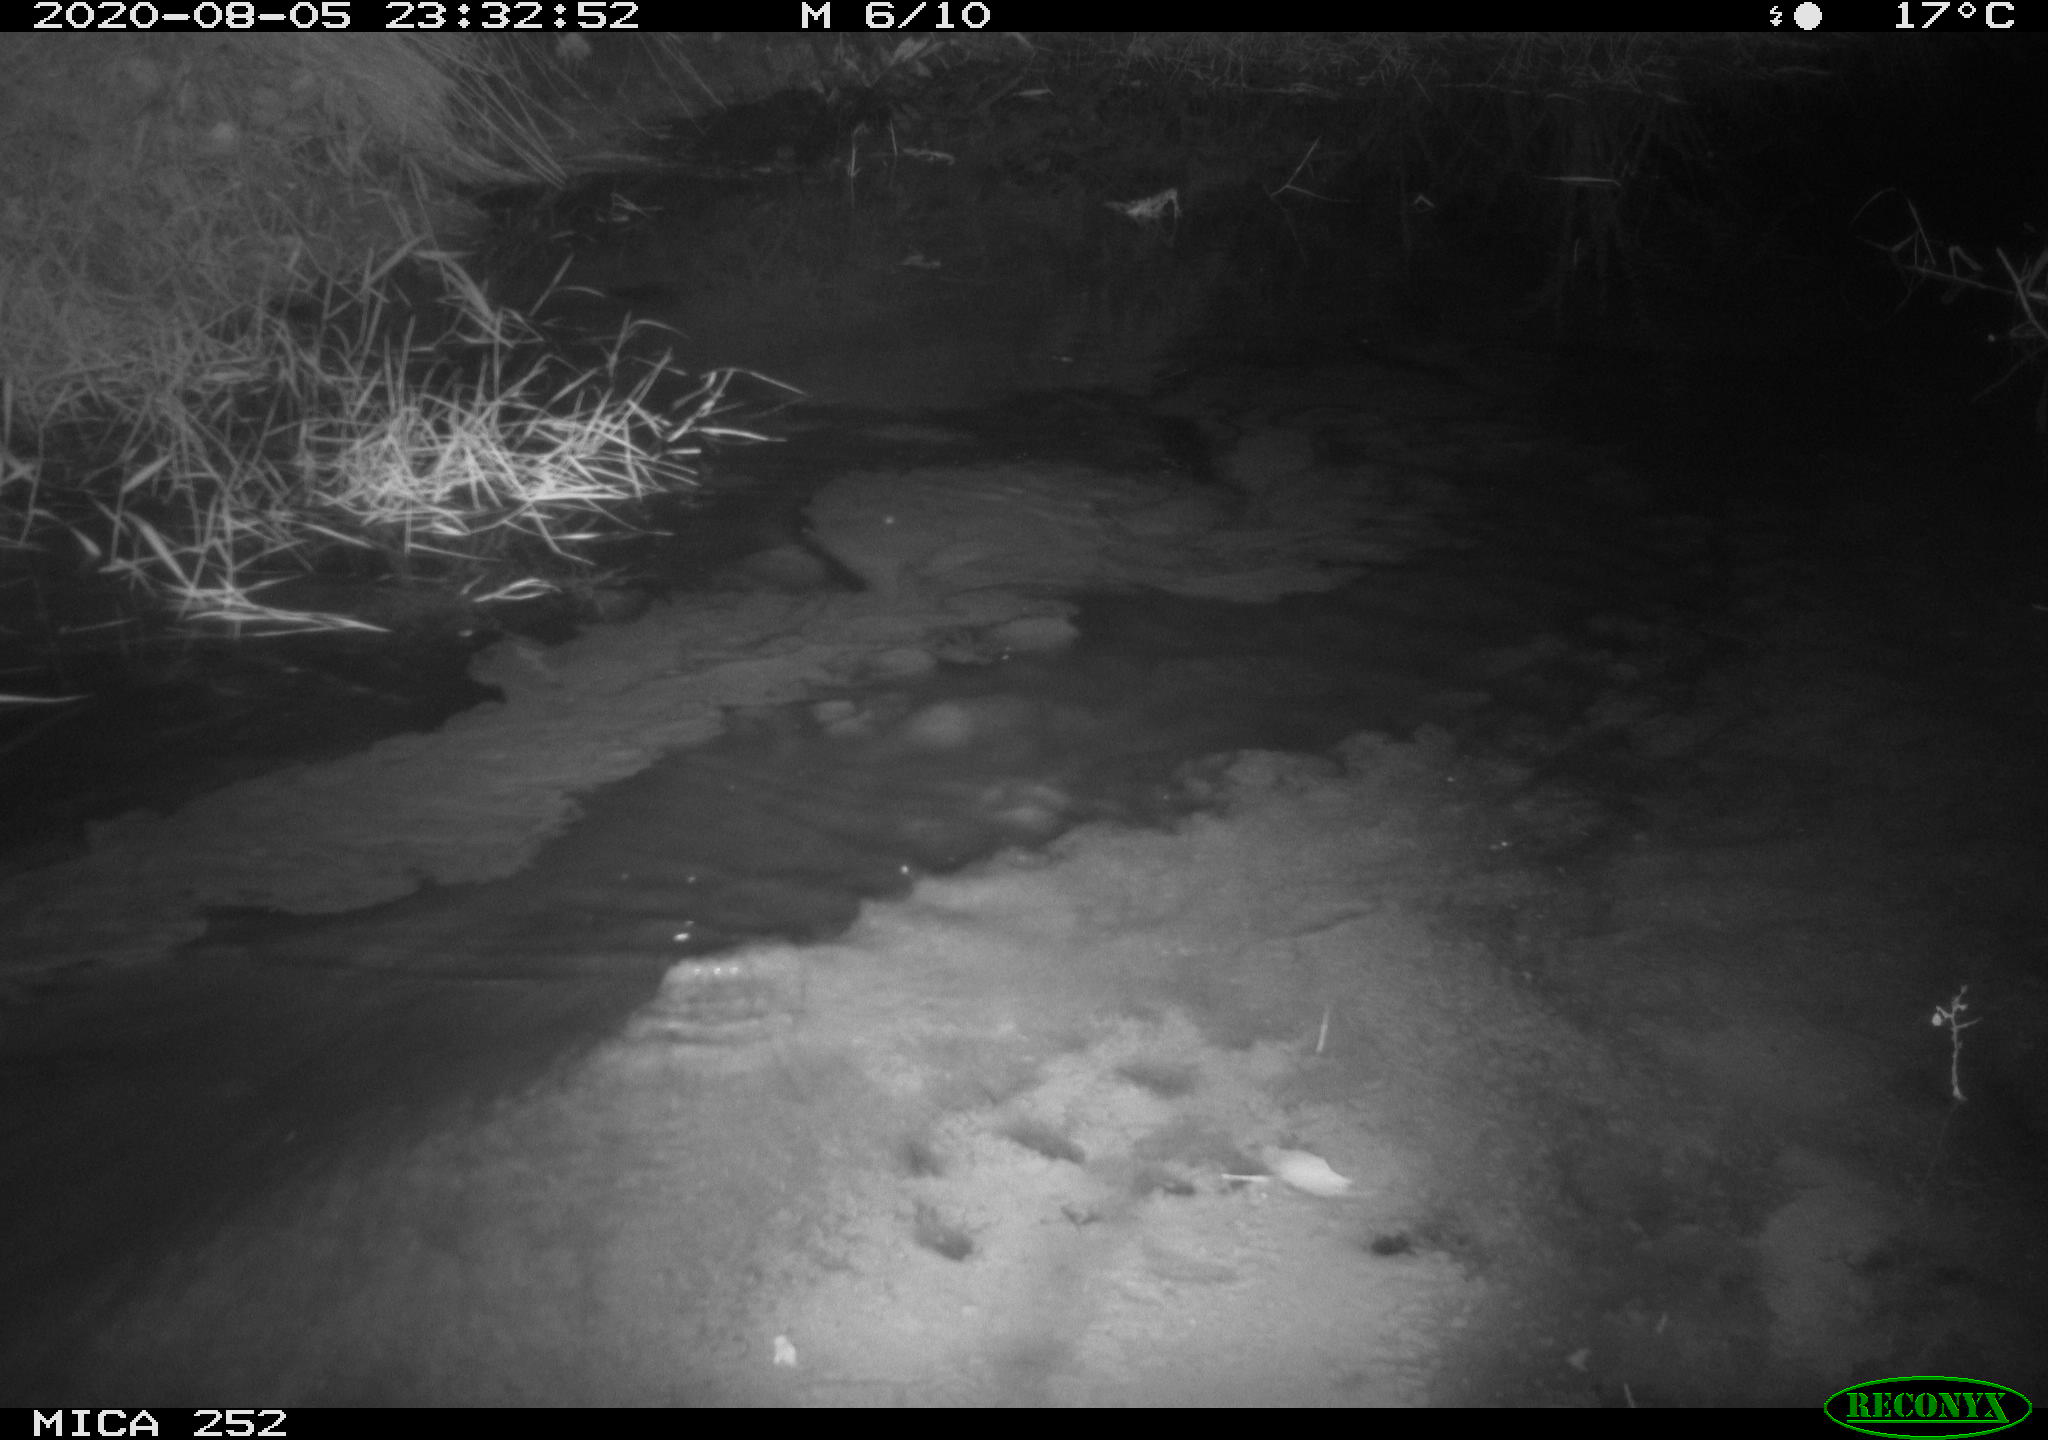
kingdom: Animalia
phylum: Chordata
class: Mammalia
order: Rodentia
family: Castoridae
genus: Castor
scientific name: Castor fiber
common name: Eurasian beaver
